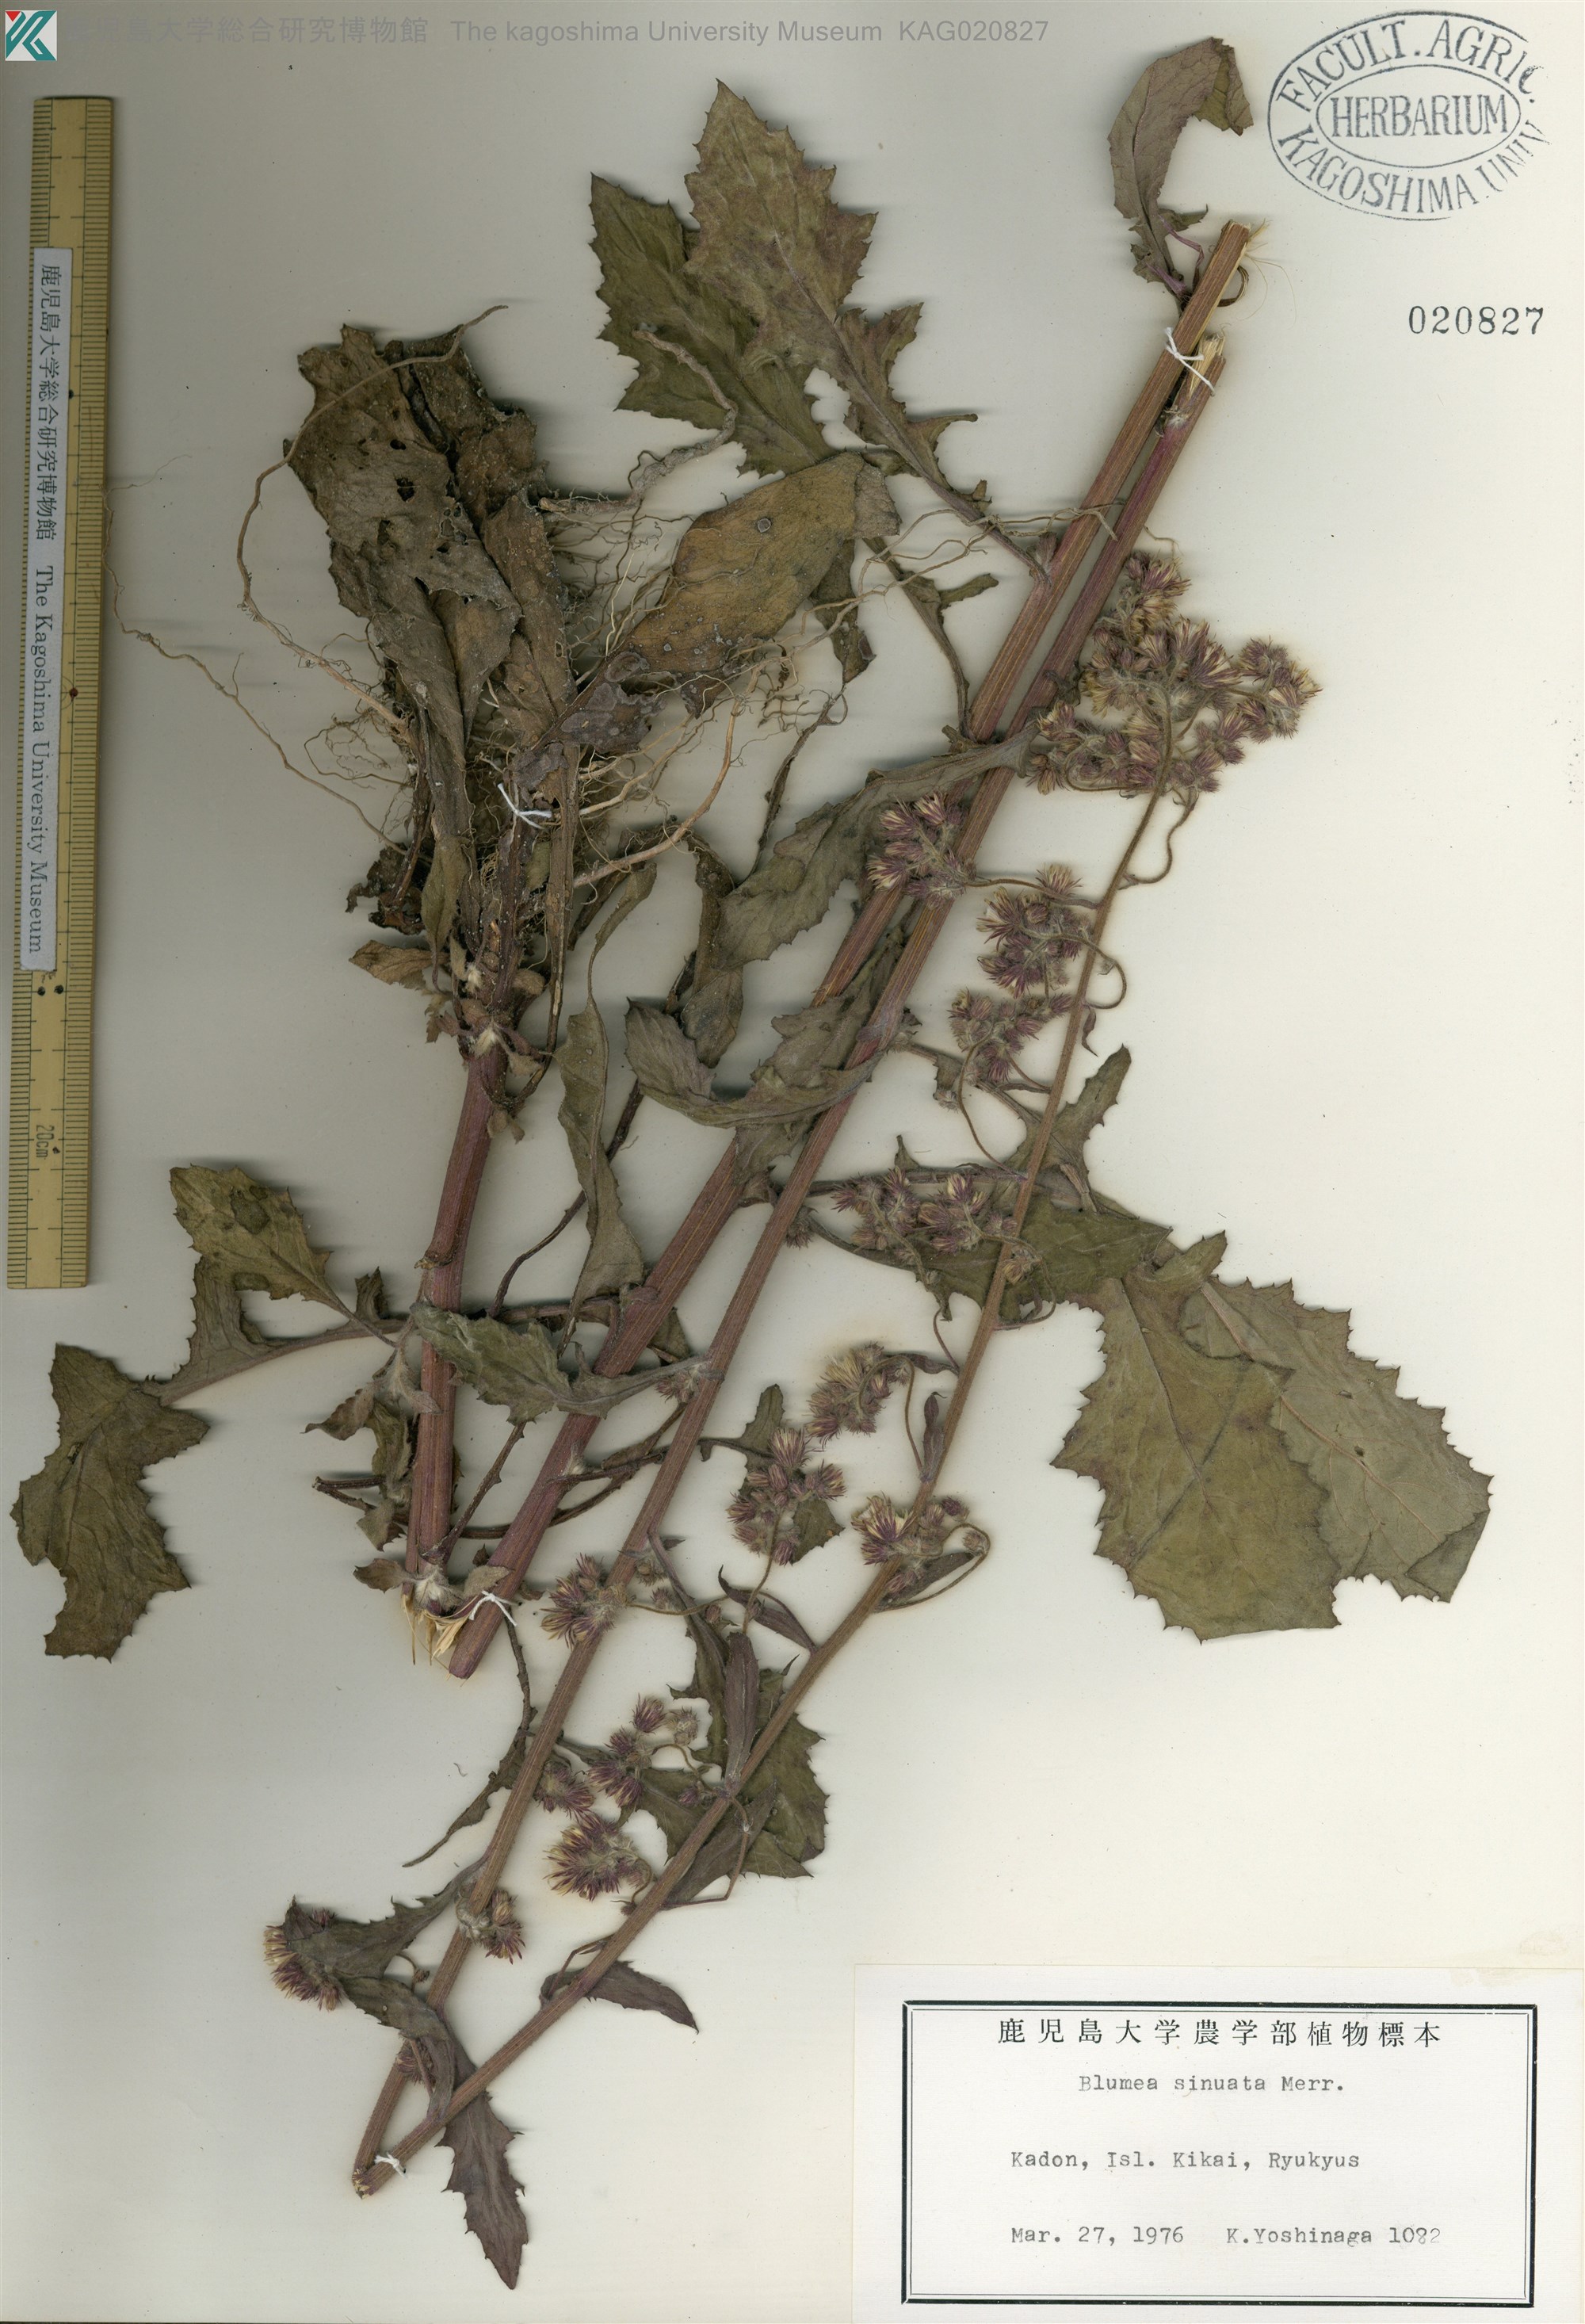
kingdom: Plantae
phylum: Tracheophyta
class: Magnoliopsida
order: Asterales
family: Asteraceae
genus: Blumea
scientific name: Blumea sinuata
